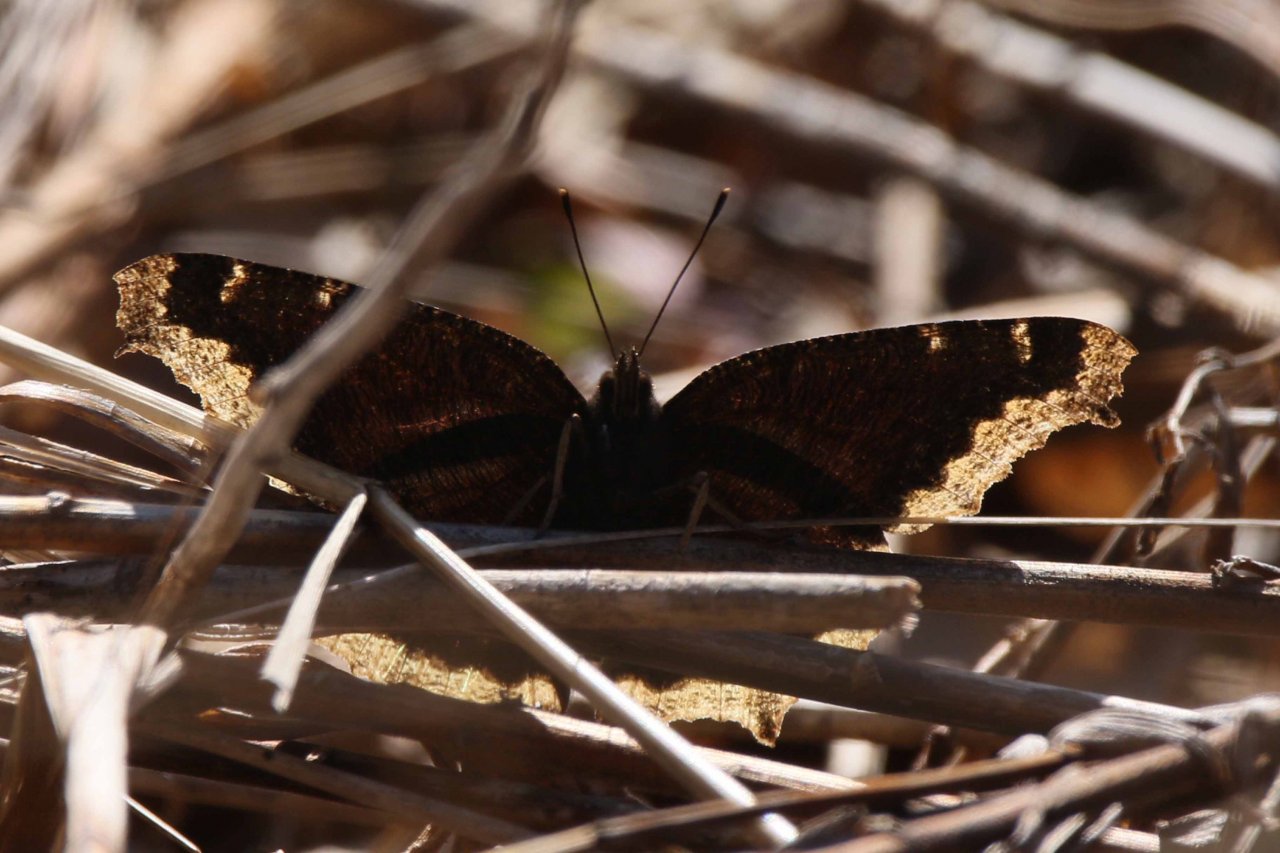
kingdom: Animalia
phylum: Arthropoda
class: Insecta
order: Lepidoptera
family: Nymphalidae
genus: Nymphalis
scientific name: Nymphalis antiopa
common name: Mourning Cloak
